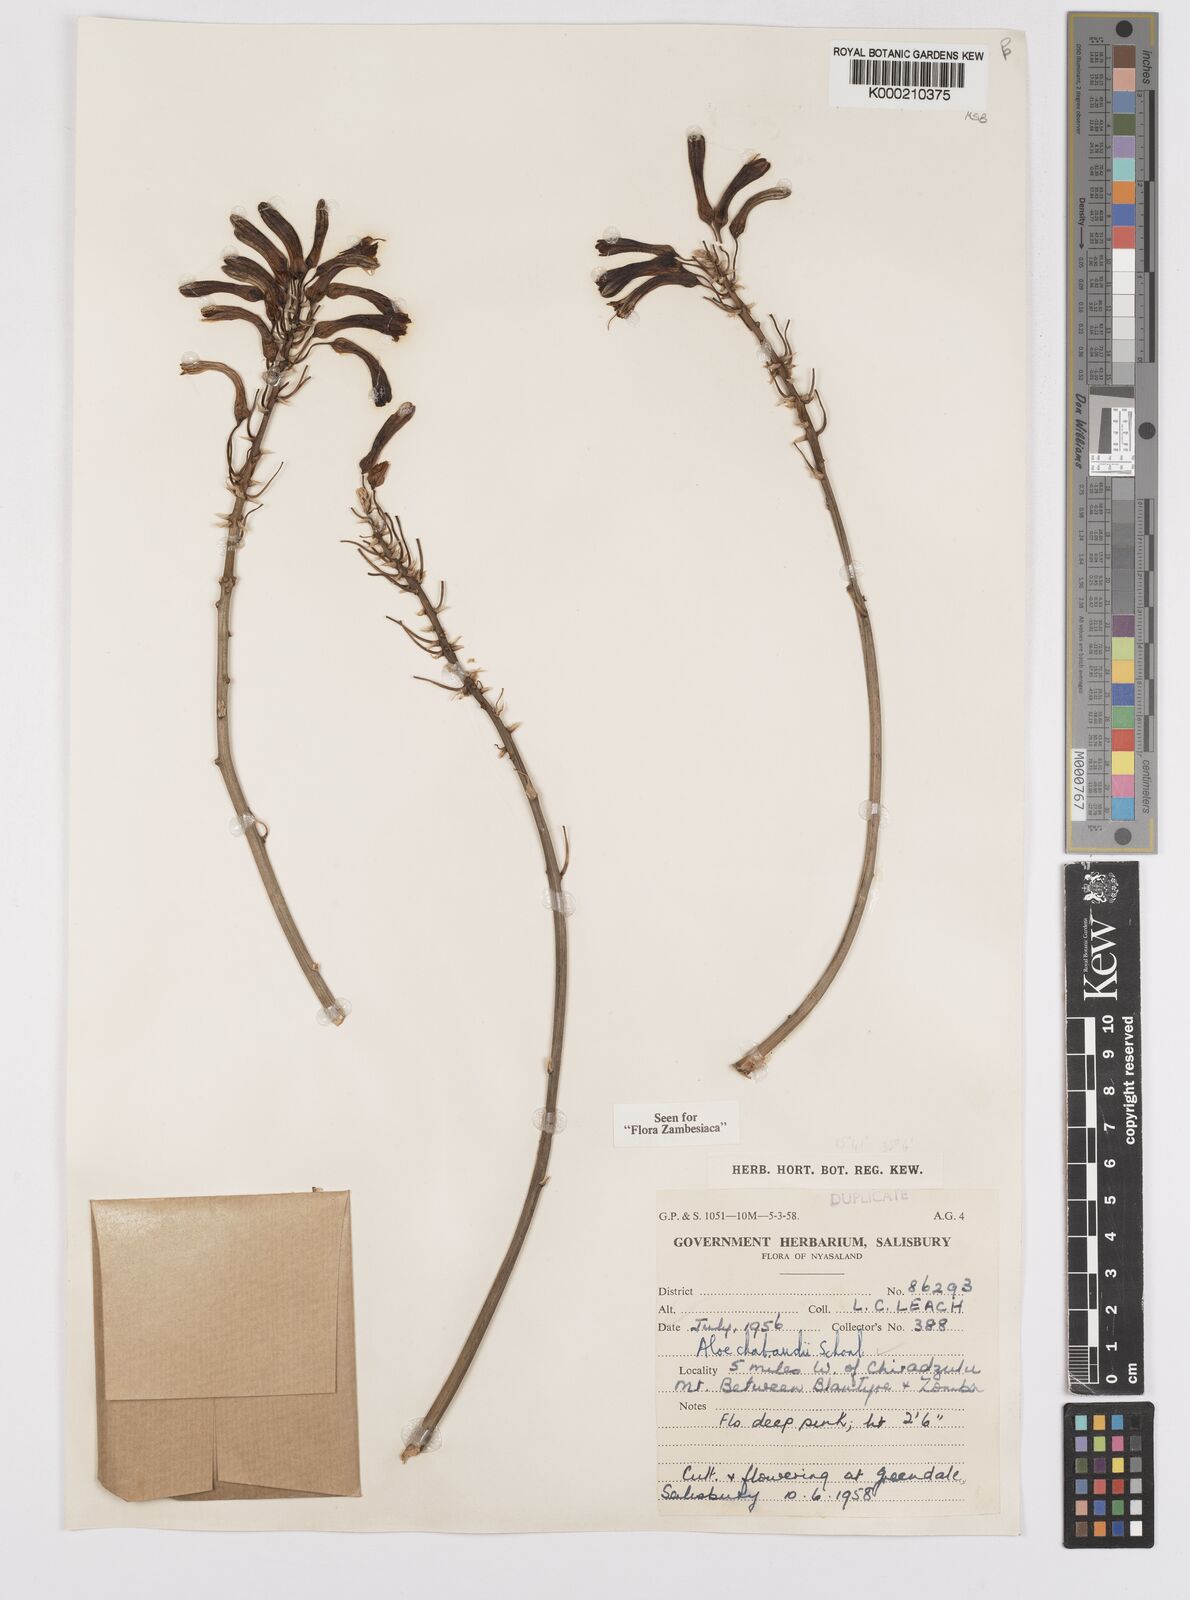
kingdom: Plantae
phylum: Tracheophyta
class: Liliopsida
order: Asparagales
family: Asphodelaceae
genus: Aloe
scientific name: Aloe chabaudii
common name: Chabaud's aloe
